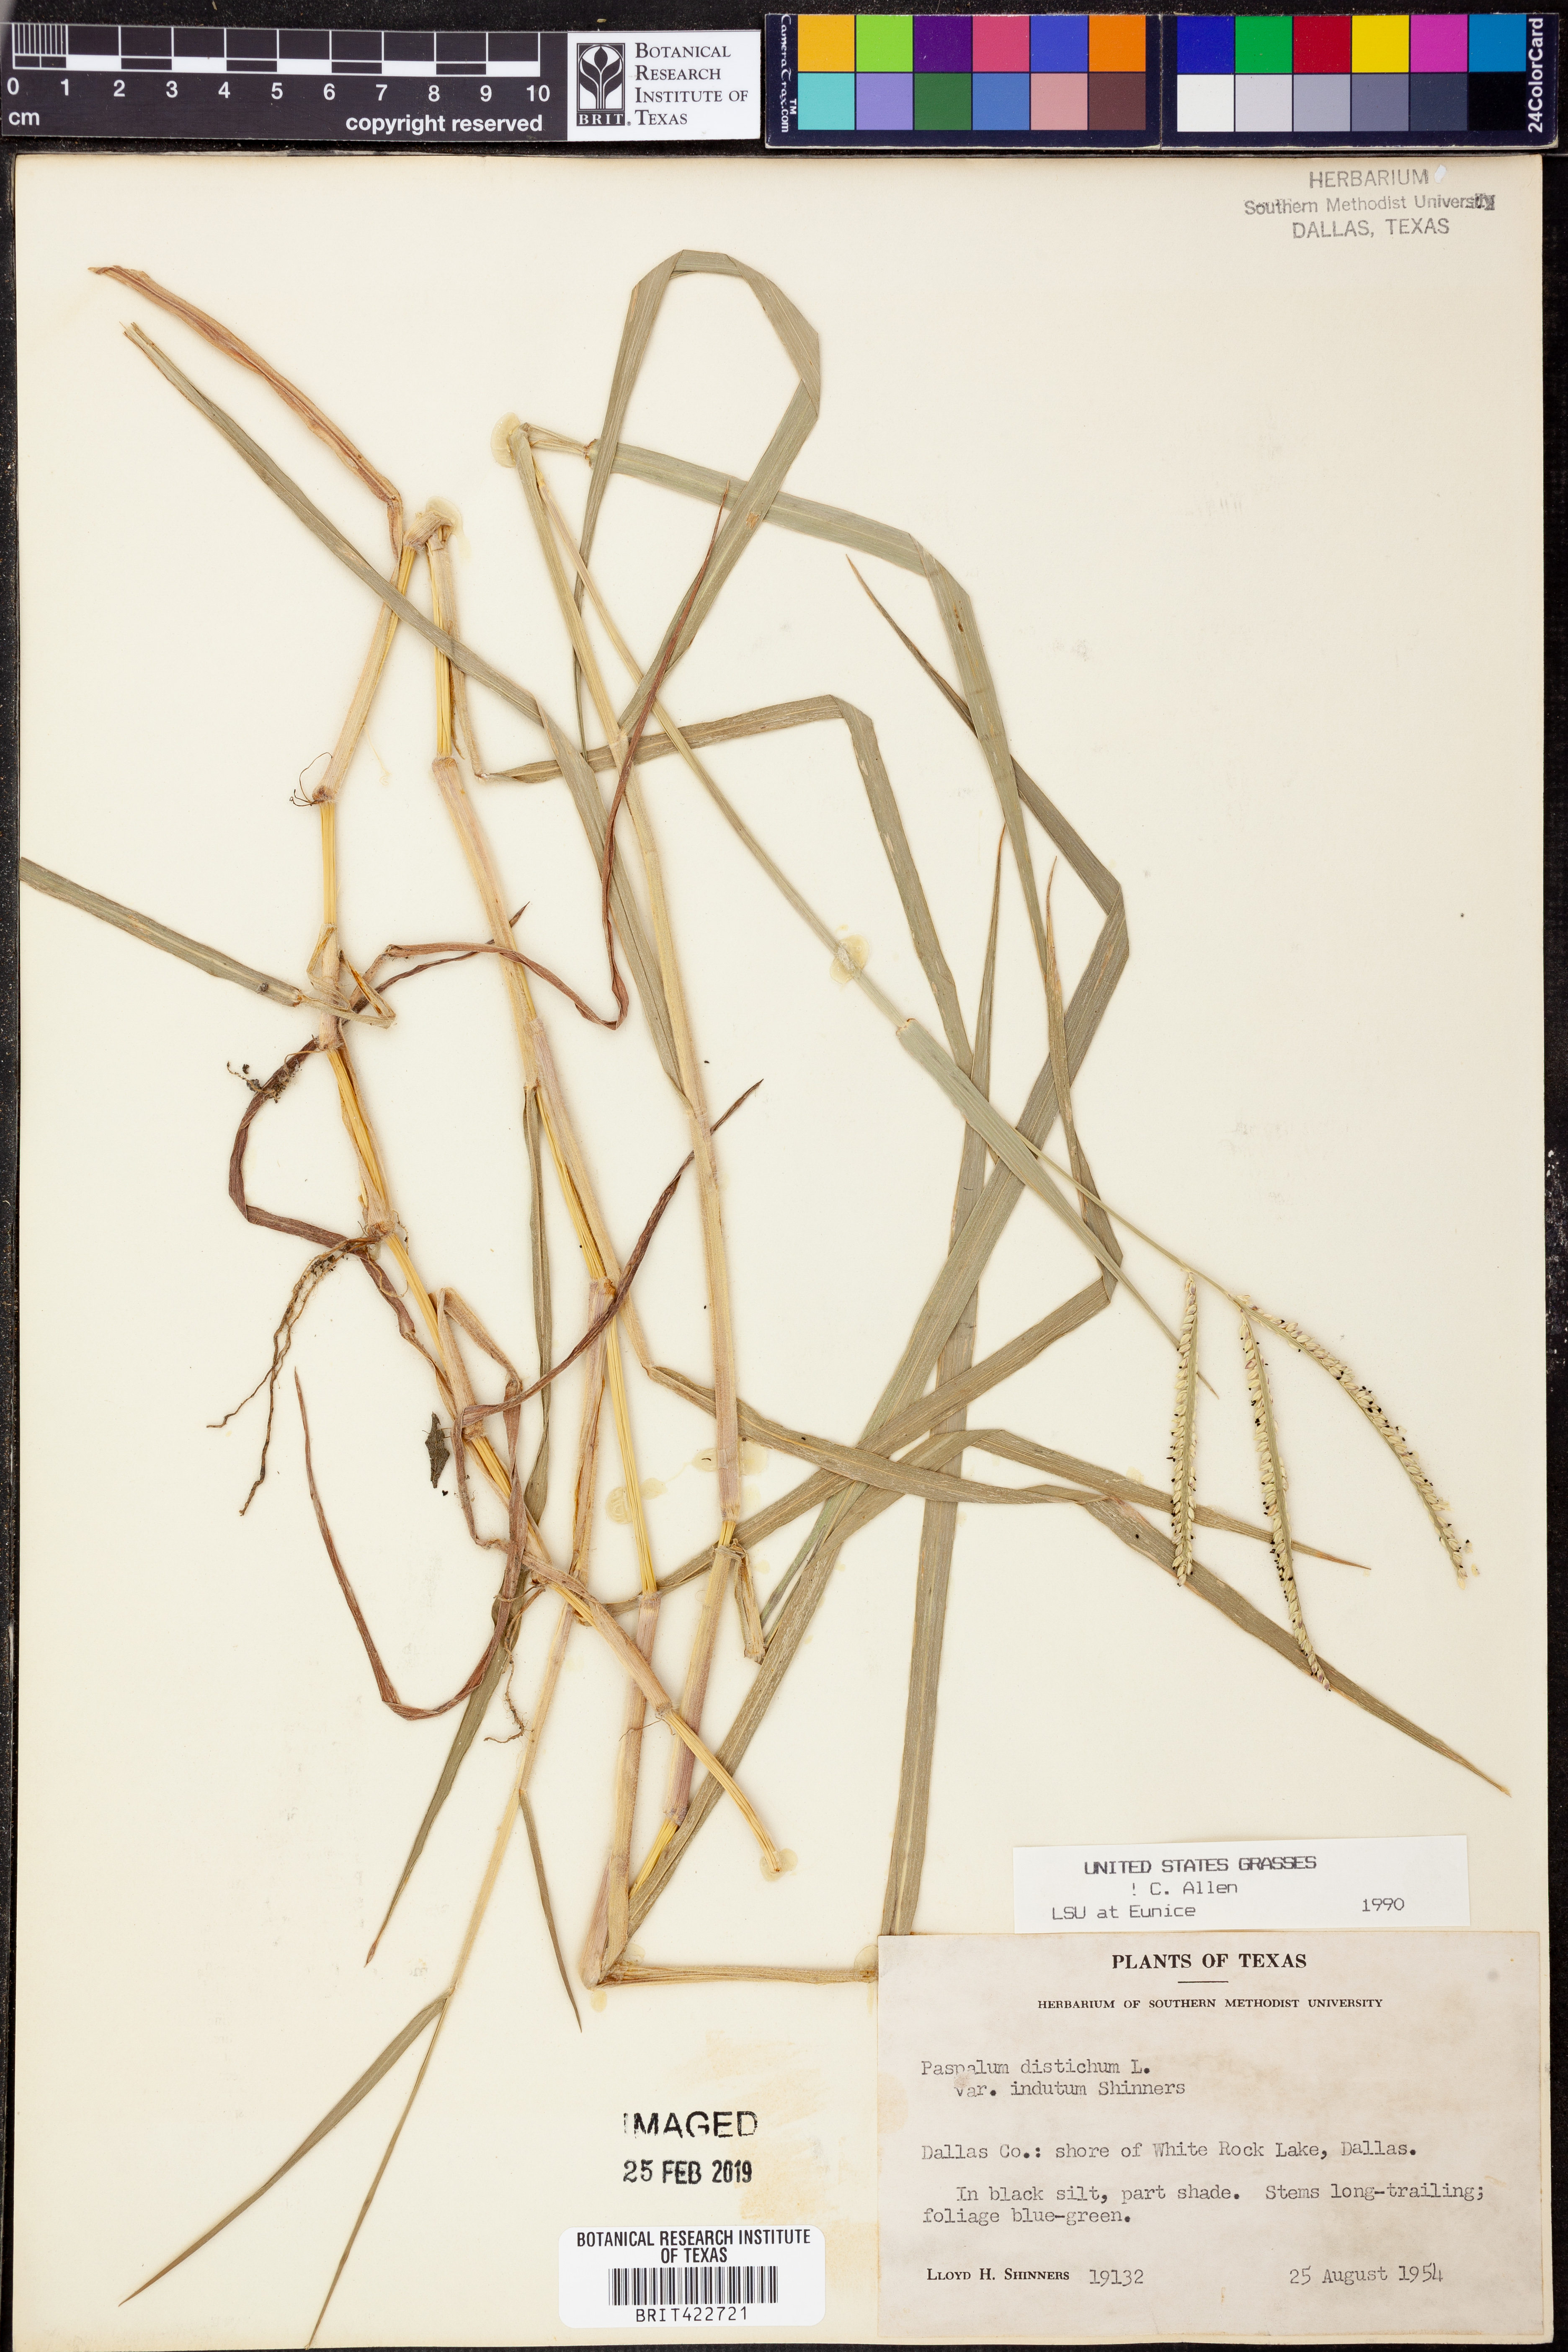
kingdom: Plantae
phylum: Tracheophyta
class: Liliopsida
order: Poales
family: Poaceae
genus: Paspalum
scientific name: Paspalum distichum
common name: Knotgrass
